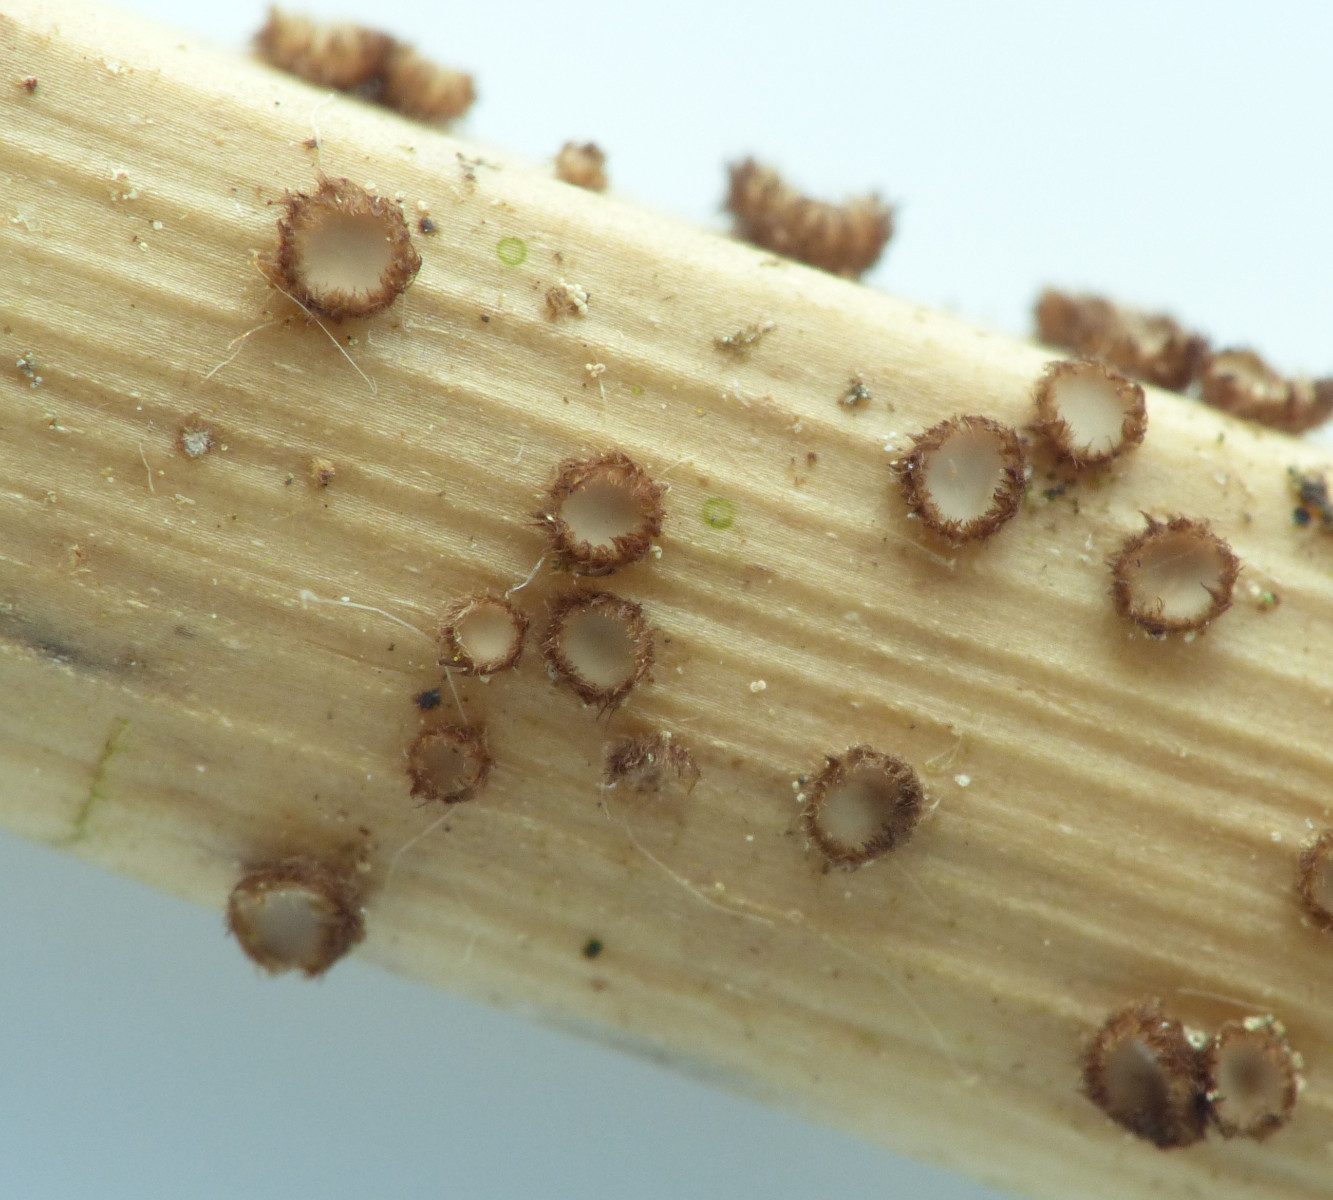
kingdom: Fungi
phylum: Ascomycota
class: Leotiomycetes
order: Helotiales
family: Solenopeziaceae
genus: Lasiobelonium
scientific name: Lasiobelonium nidulus
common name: rede-frynseskive
